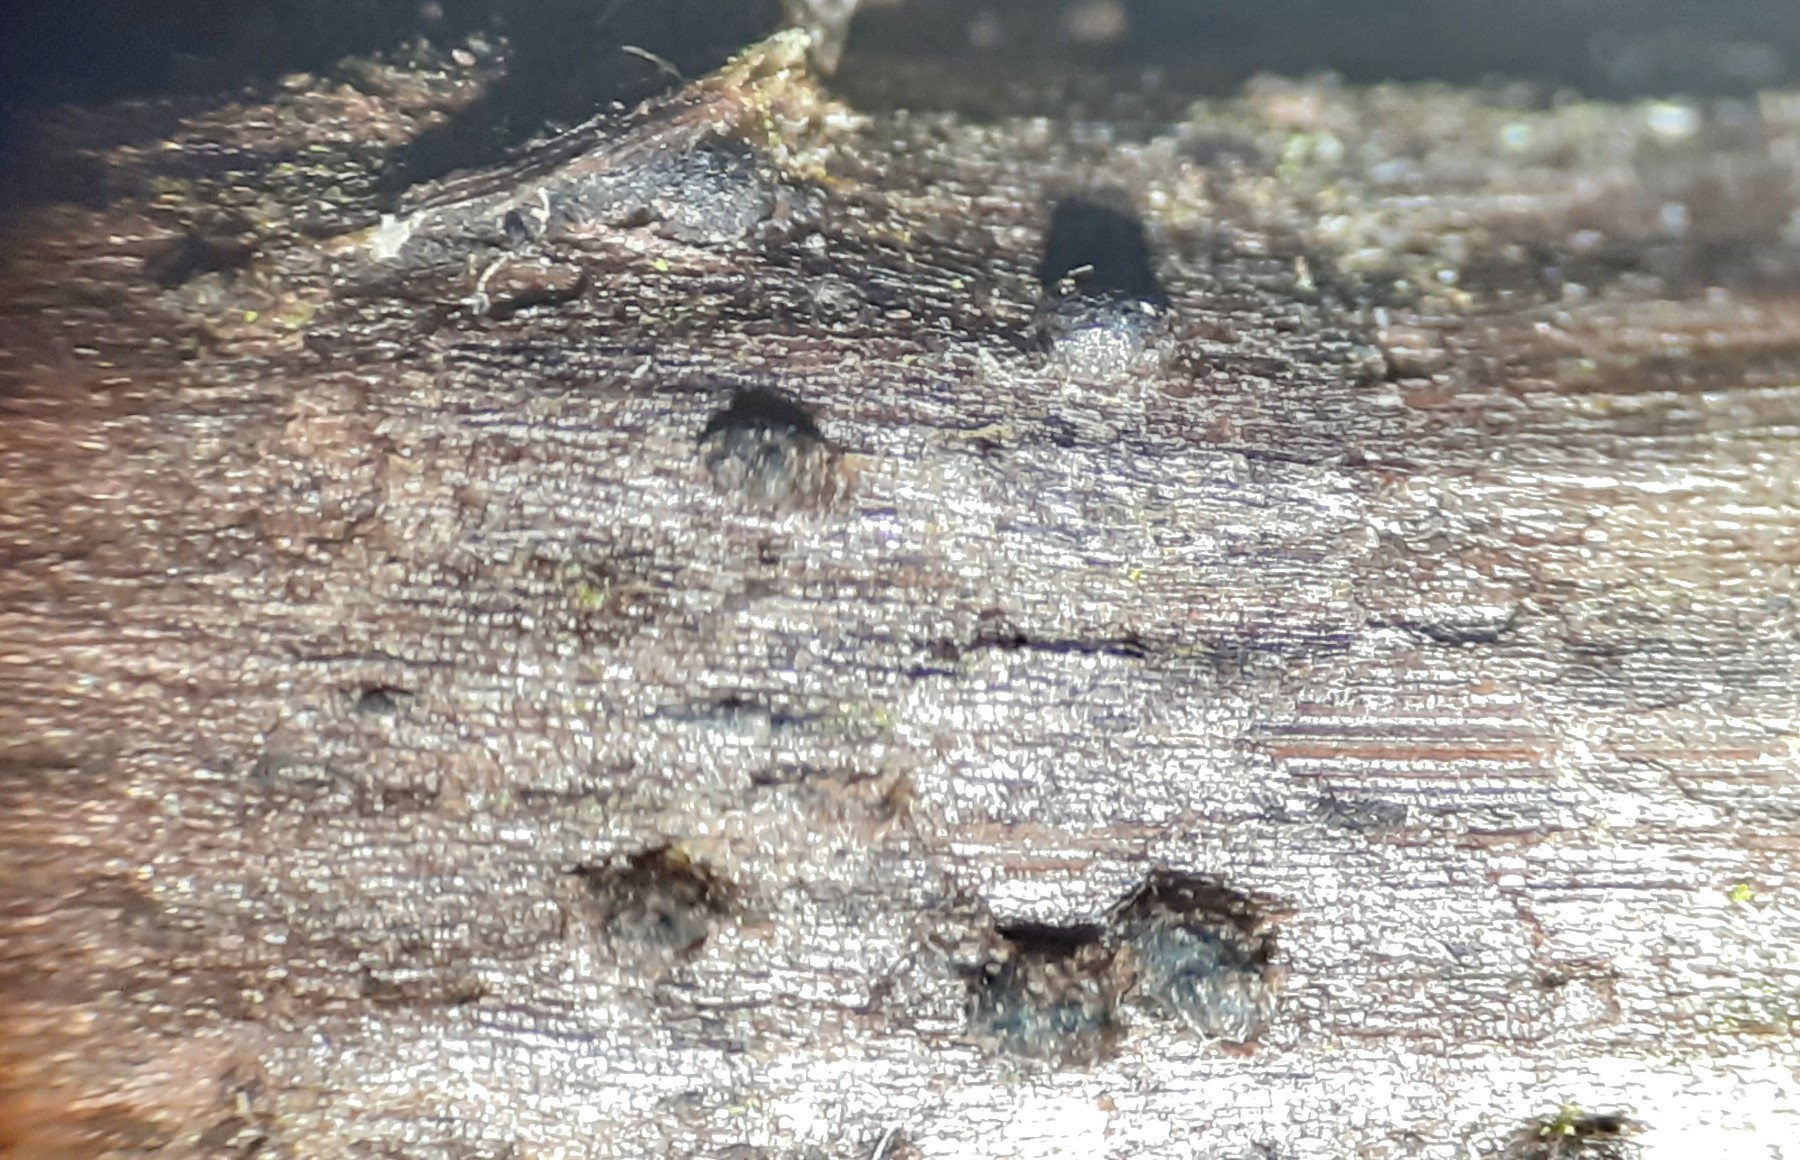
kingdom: Fungi
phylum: Ascomycota
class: Dothideomycetes
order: Pleosporales
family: Phaeosphaeriaceae
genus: Phaeosphaeria
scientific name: Phaeosphaeria sowerbyi
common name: kål-kulkegle
